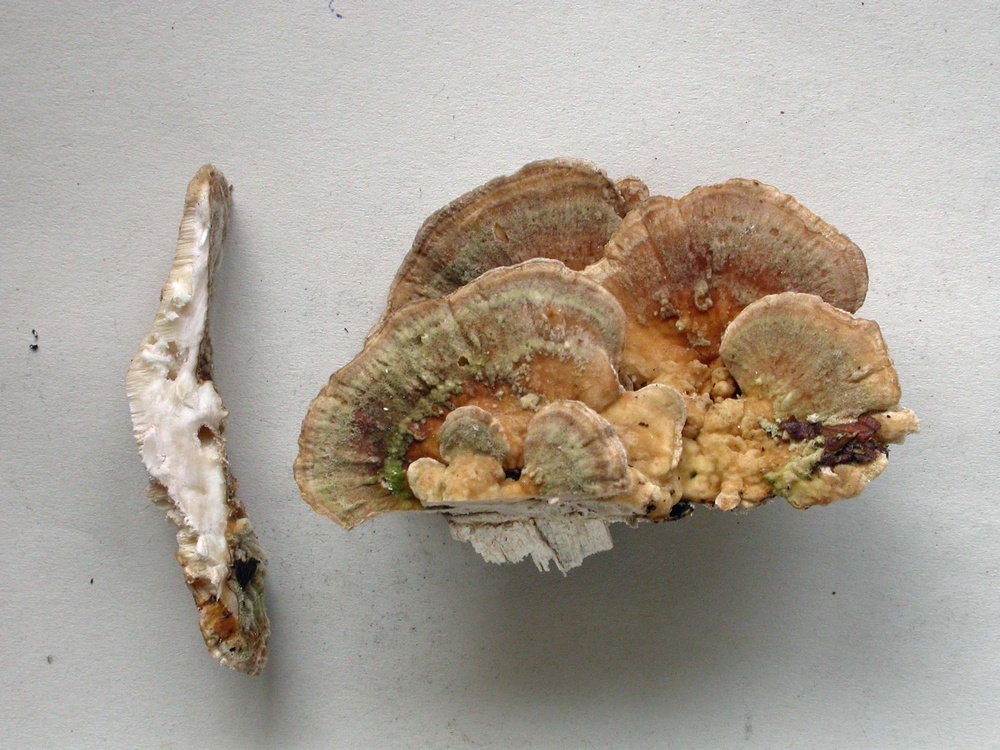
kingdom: Fungi
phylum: Basidiomycota
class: Agaricomycetes
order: Polyporales
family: Polyporaceae
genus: Trametes
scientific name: Trametes ochracea
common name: bæltet læderporesvamp
